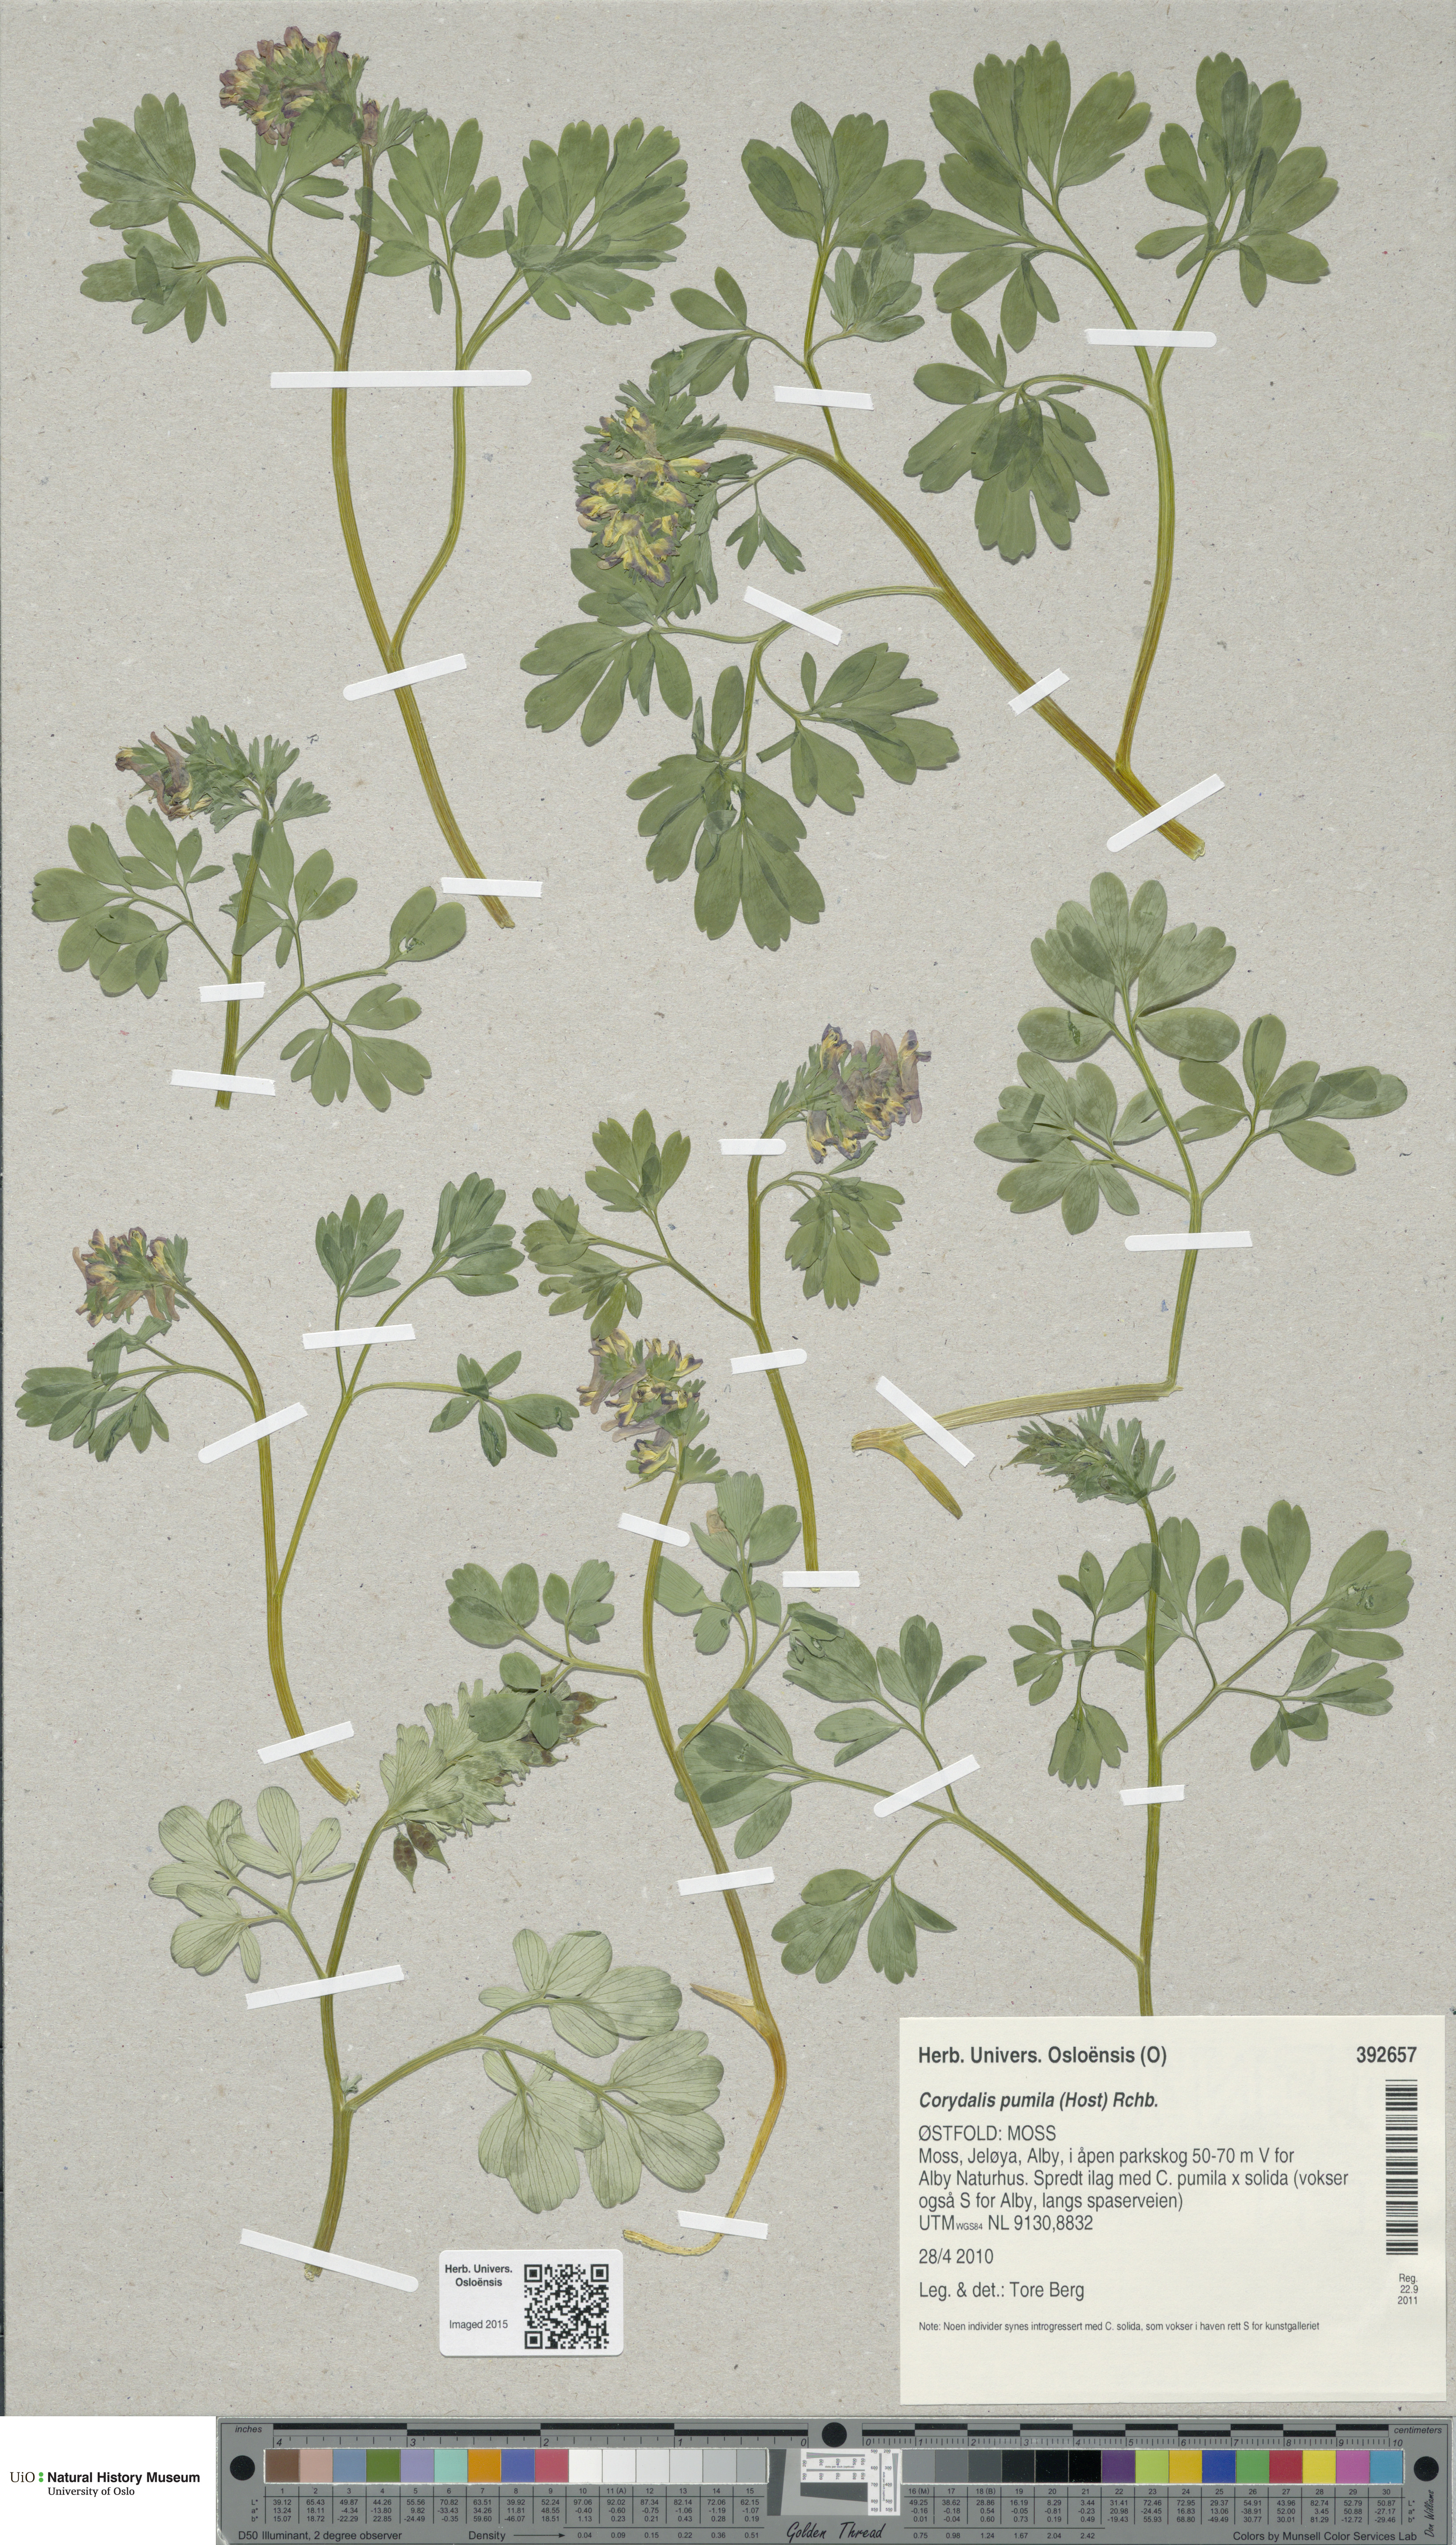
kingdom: Plantae
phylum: Tracheophyta
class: Magnoliopsida
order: Ranunculales
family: Papaveraceae
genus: Corydalis
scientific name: Corydalis pumila
